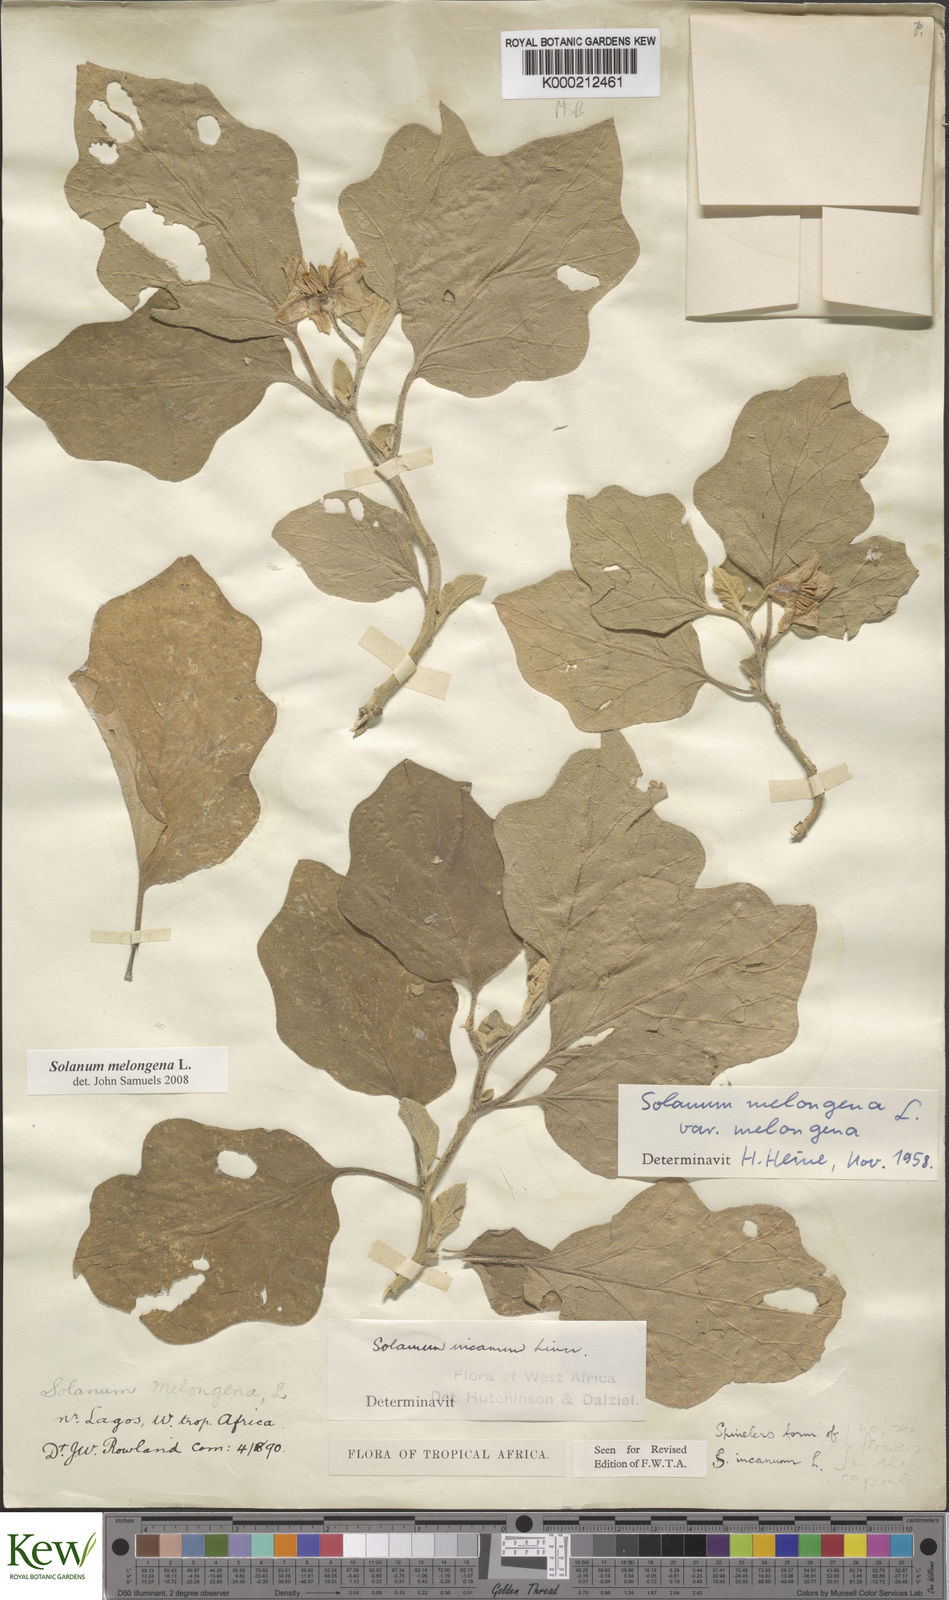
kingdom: Plantae
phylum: Tracheophyta
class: Magnoliopsida
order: Solanales
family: Solanaceae
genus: Solanum
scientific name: Solanum melongena
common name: Eggplant
